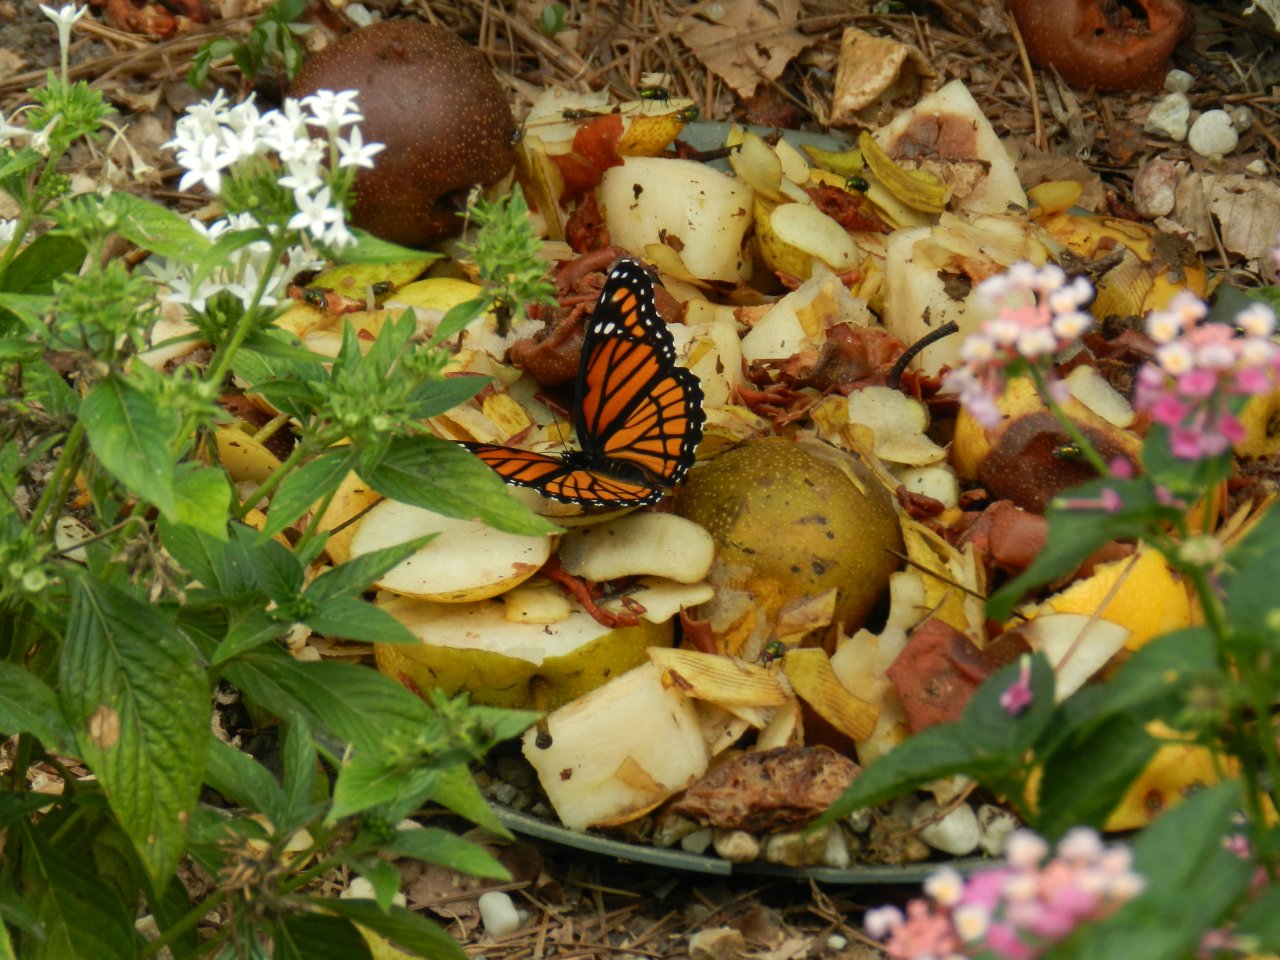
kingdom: Animalia
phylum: Arthropoda
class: Insecta
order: Lepidoptera
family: Nymphalidae
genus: Limenitis
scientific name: Limenitis archippus
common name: Viceroy
